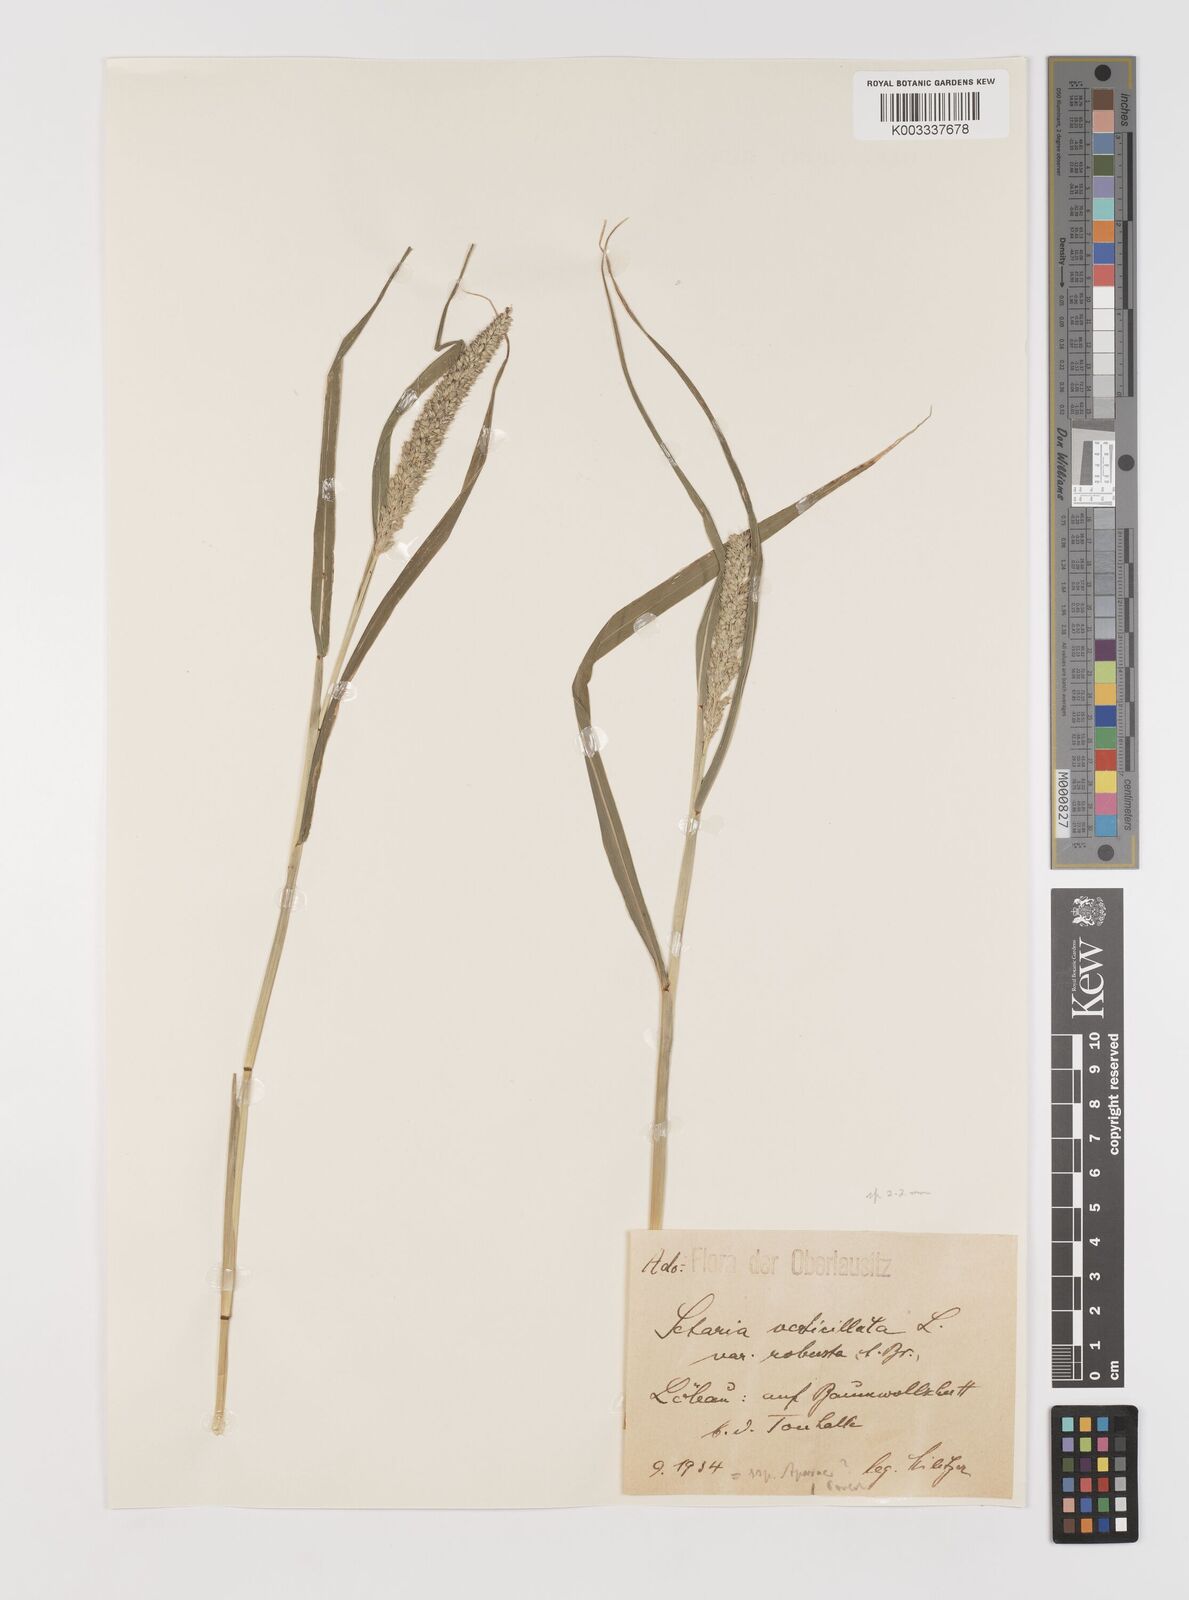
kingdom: Plantae
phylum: Tracheophyta
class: Liliopsida
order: Poales
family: Poaceae
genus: Setaria
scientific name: Setaria verticillata
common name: Hooked bristlegrass
